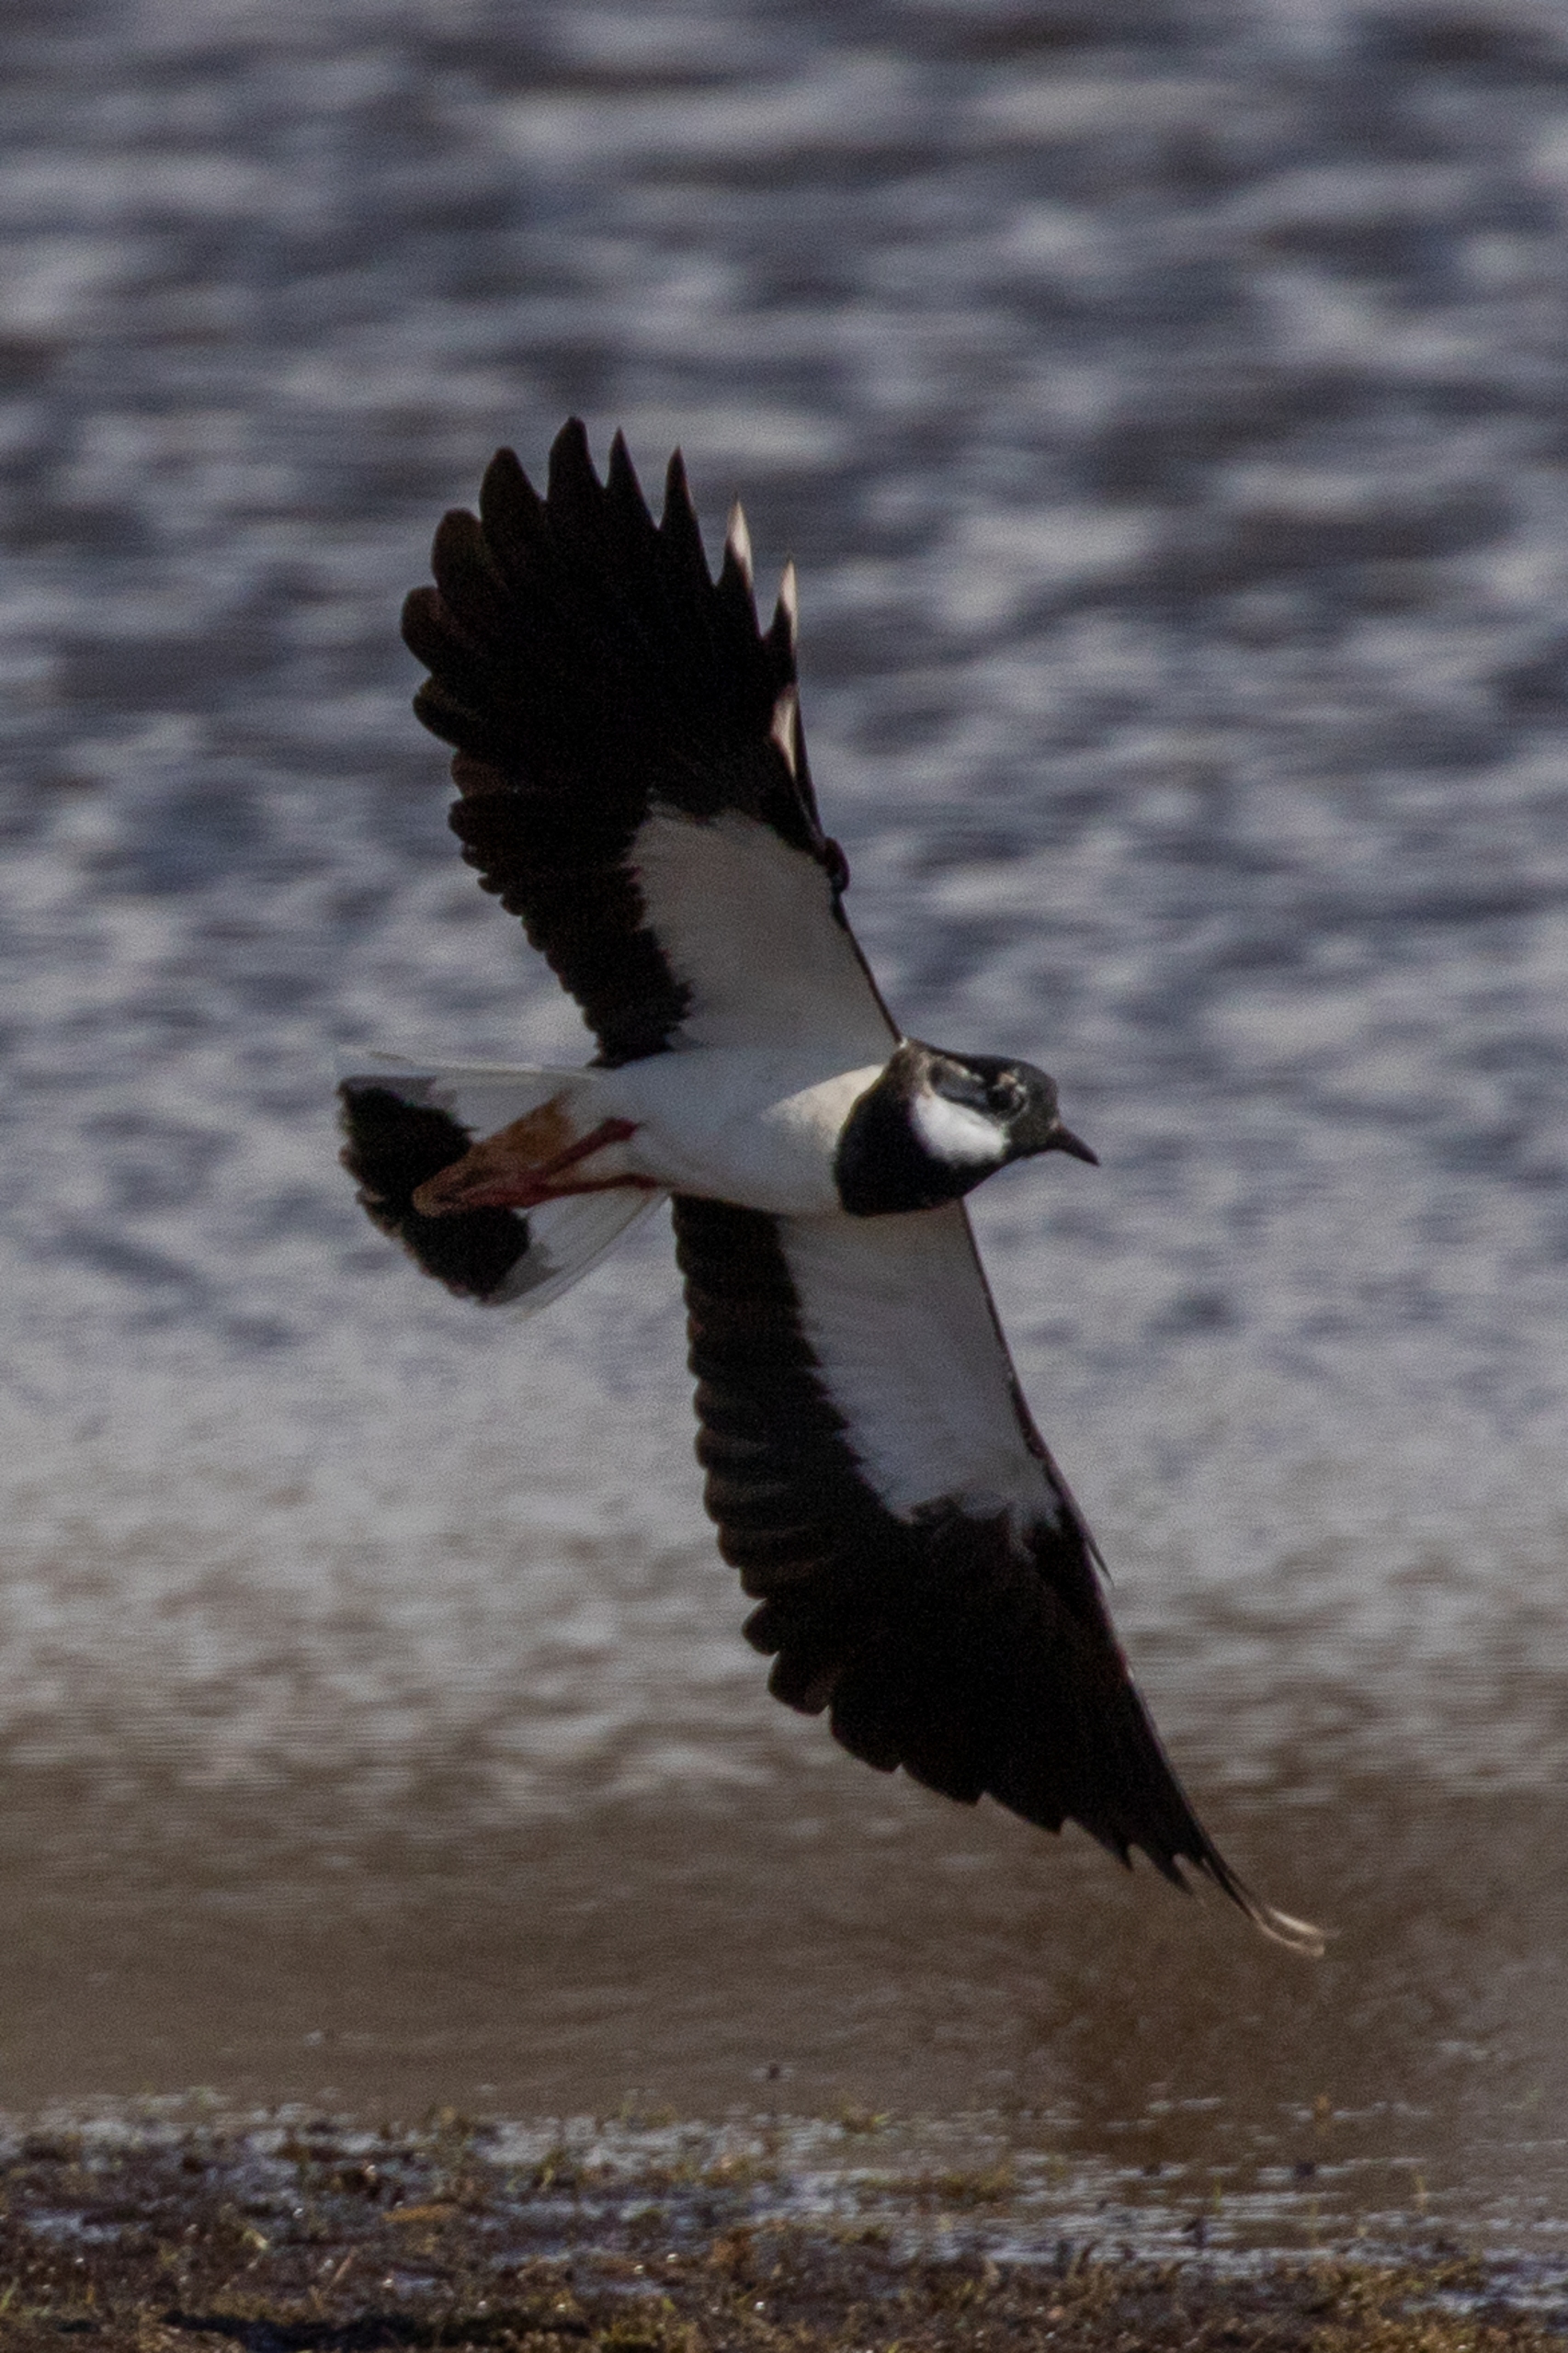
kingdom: Animalia
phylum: Chordata
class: Aves
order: Charadriiformes
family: Charadriidae
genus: Vanellus
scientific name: Vanellus vanellus
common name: Vibe
